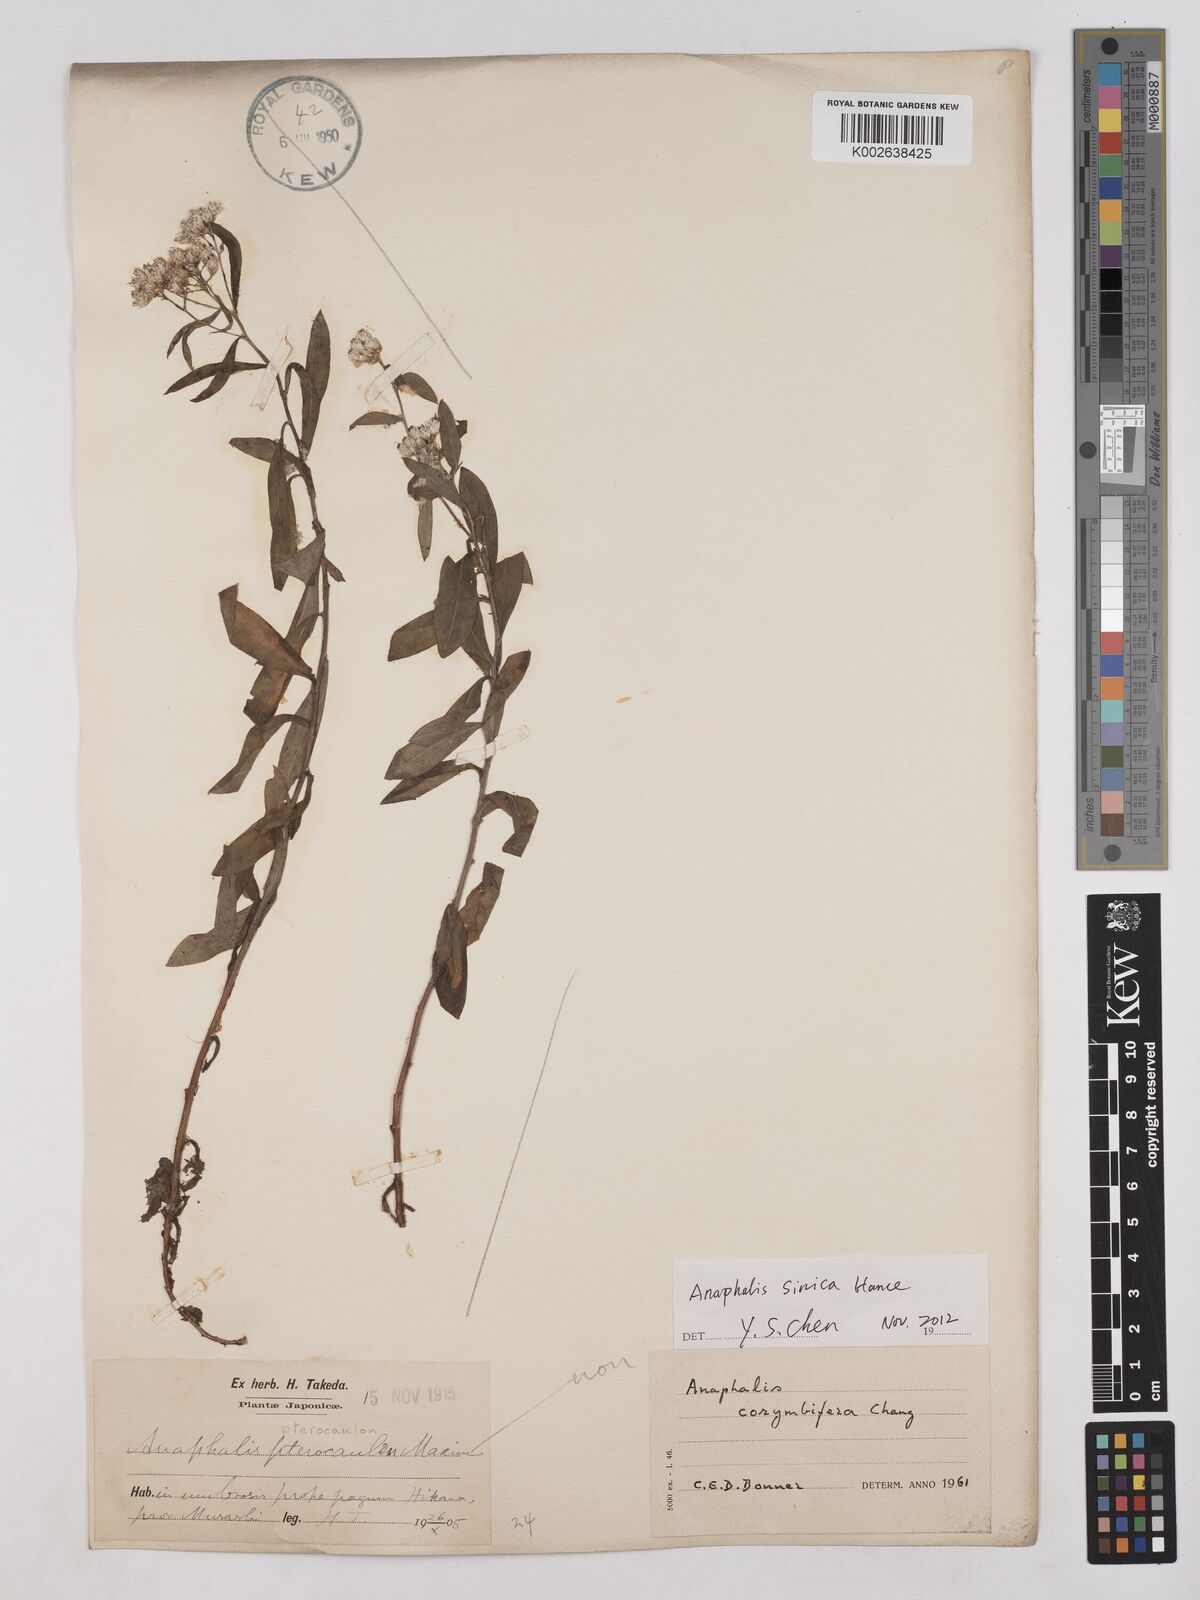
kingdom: Plantae
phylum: Tracheophyta
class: Magnoliopsida
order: Asterales
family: Asteraceae
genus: Anaphalis
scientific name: Anaphalis corymbifera
